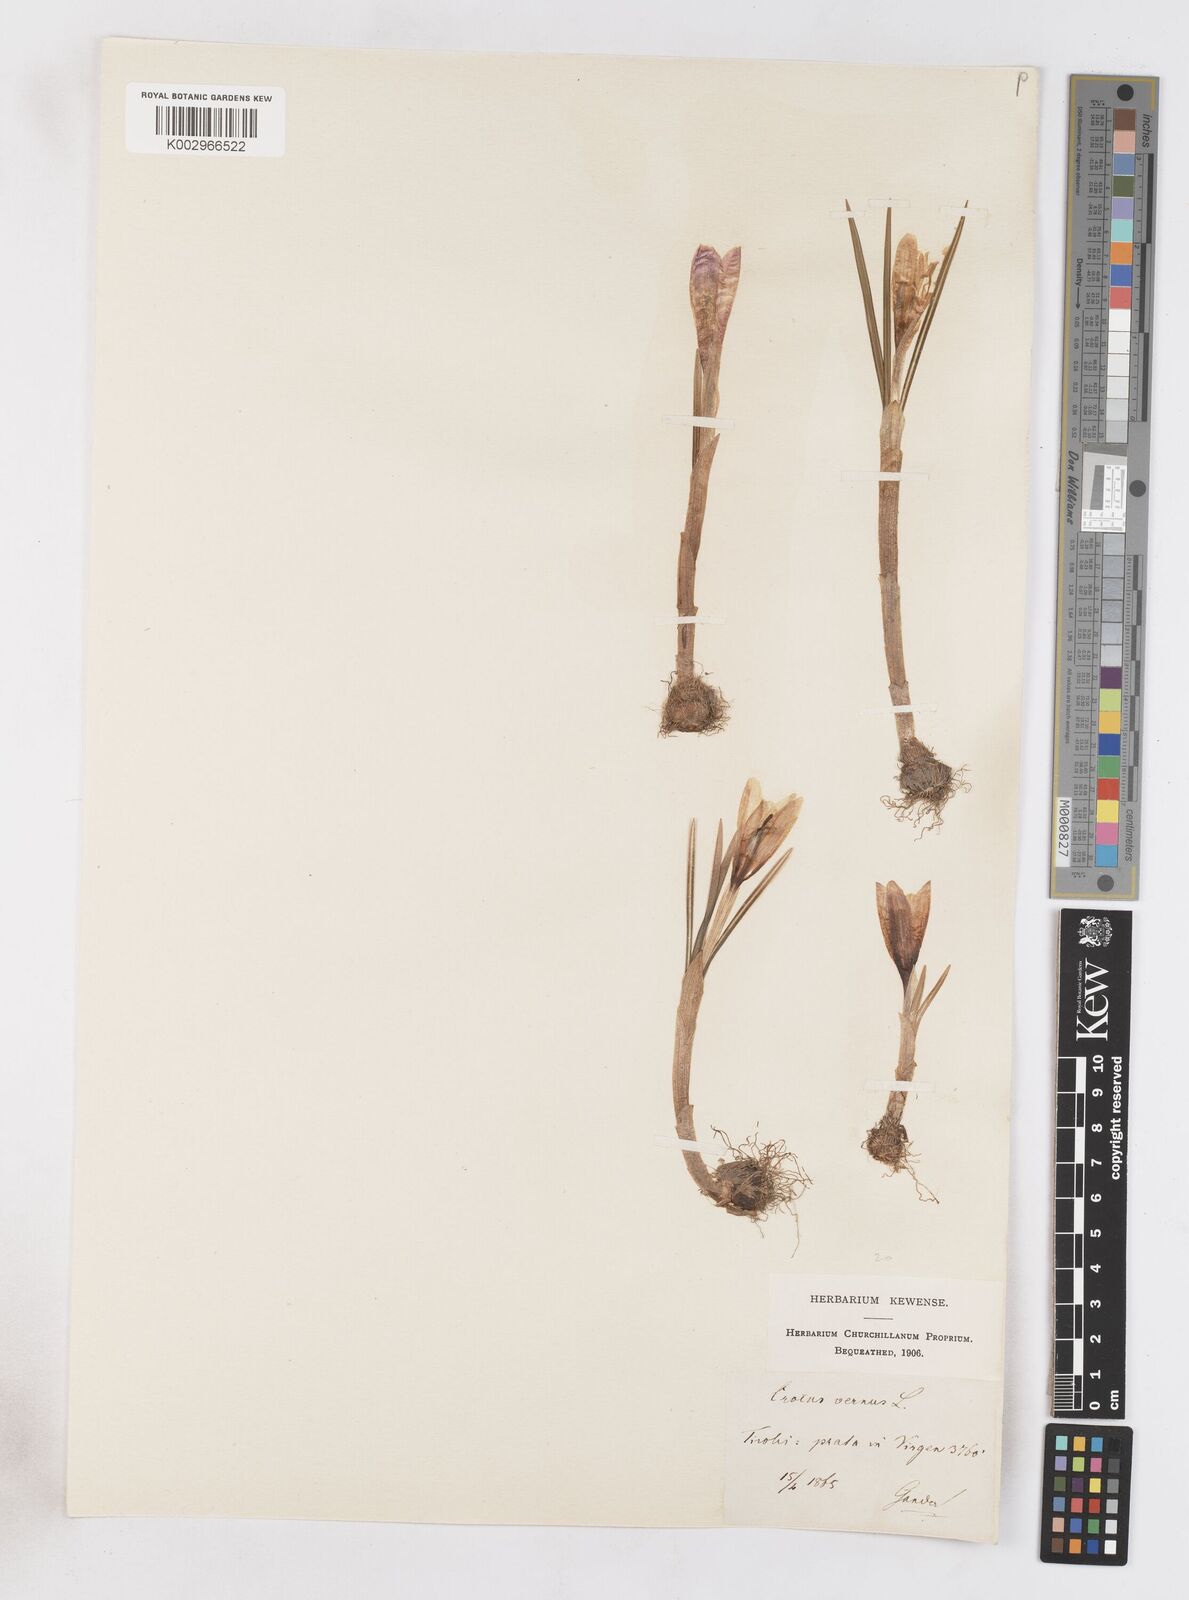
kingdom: Plantae
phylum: Tracheophyta
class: Liliopsida
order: Asparagales
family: Iridaceae
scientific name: Iridaceae
